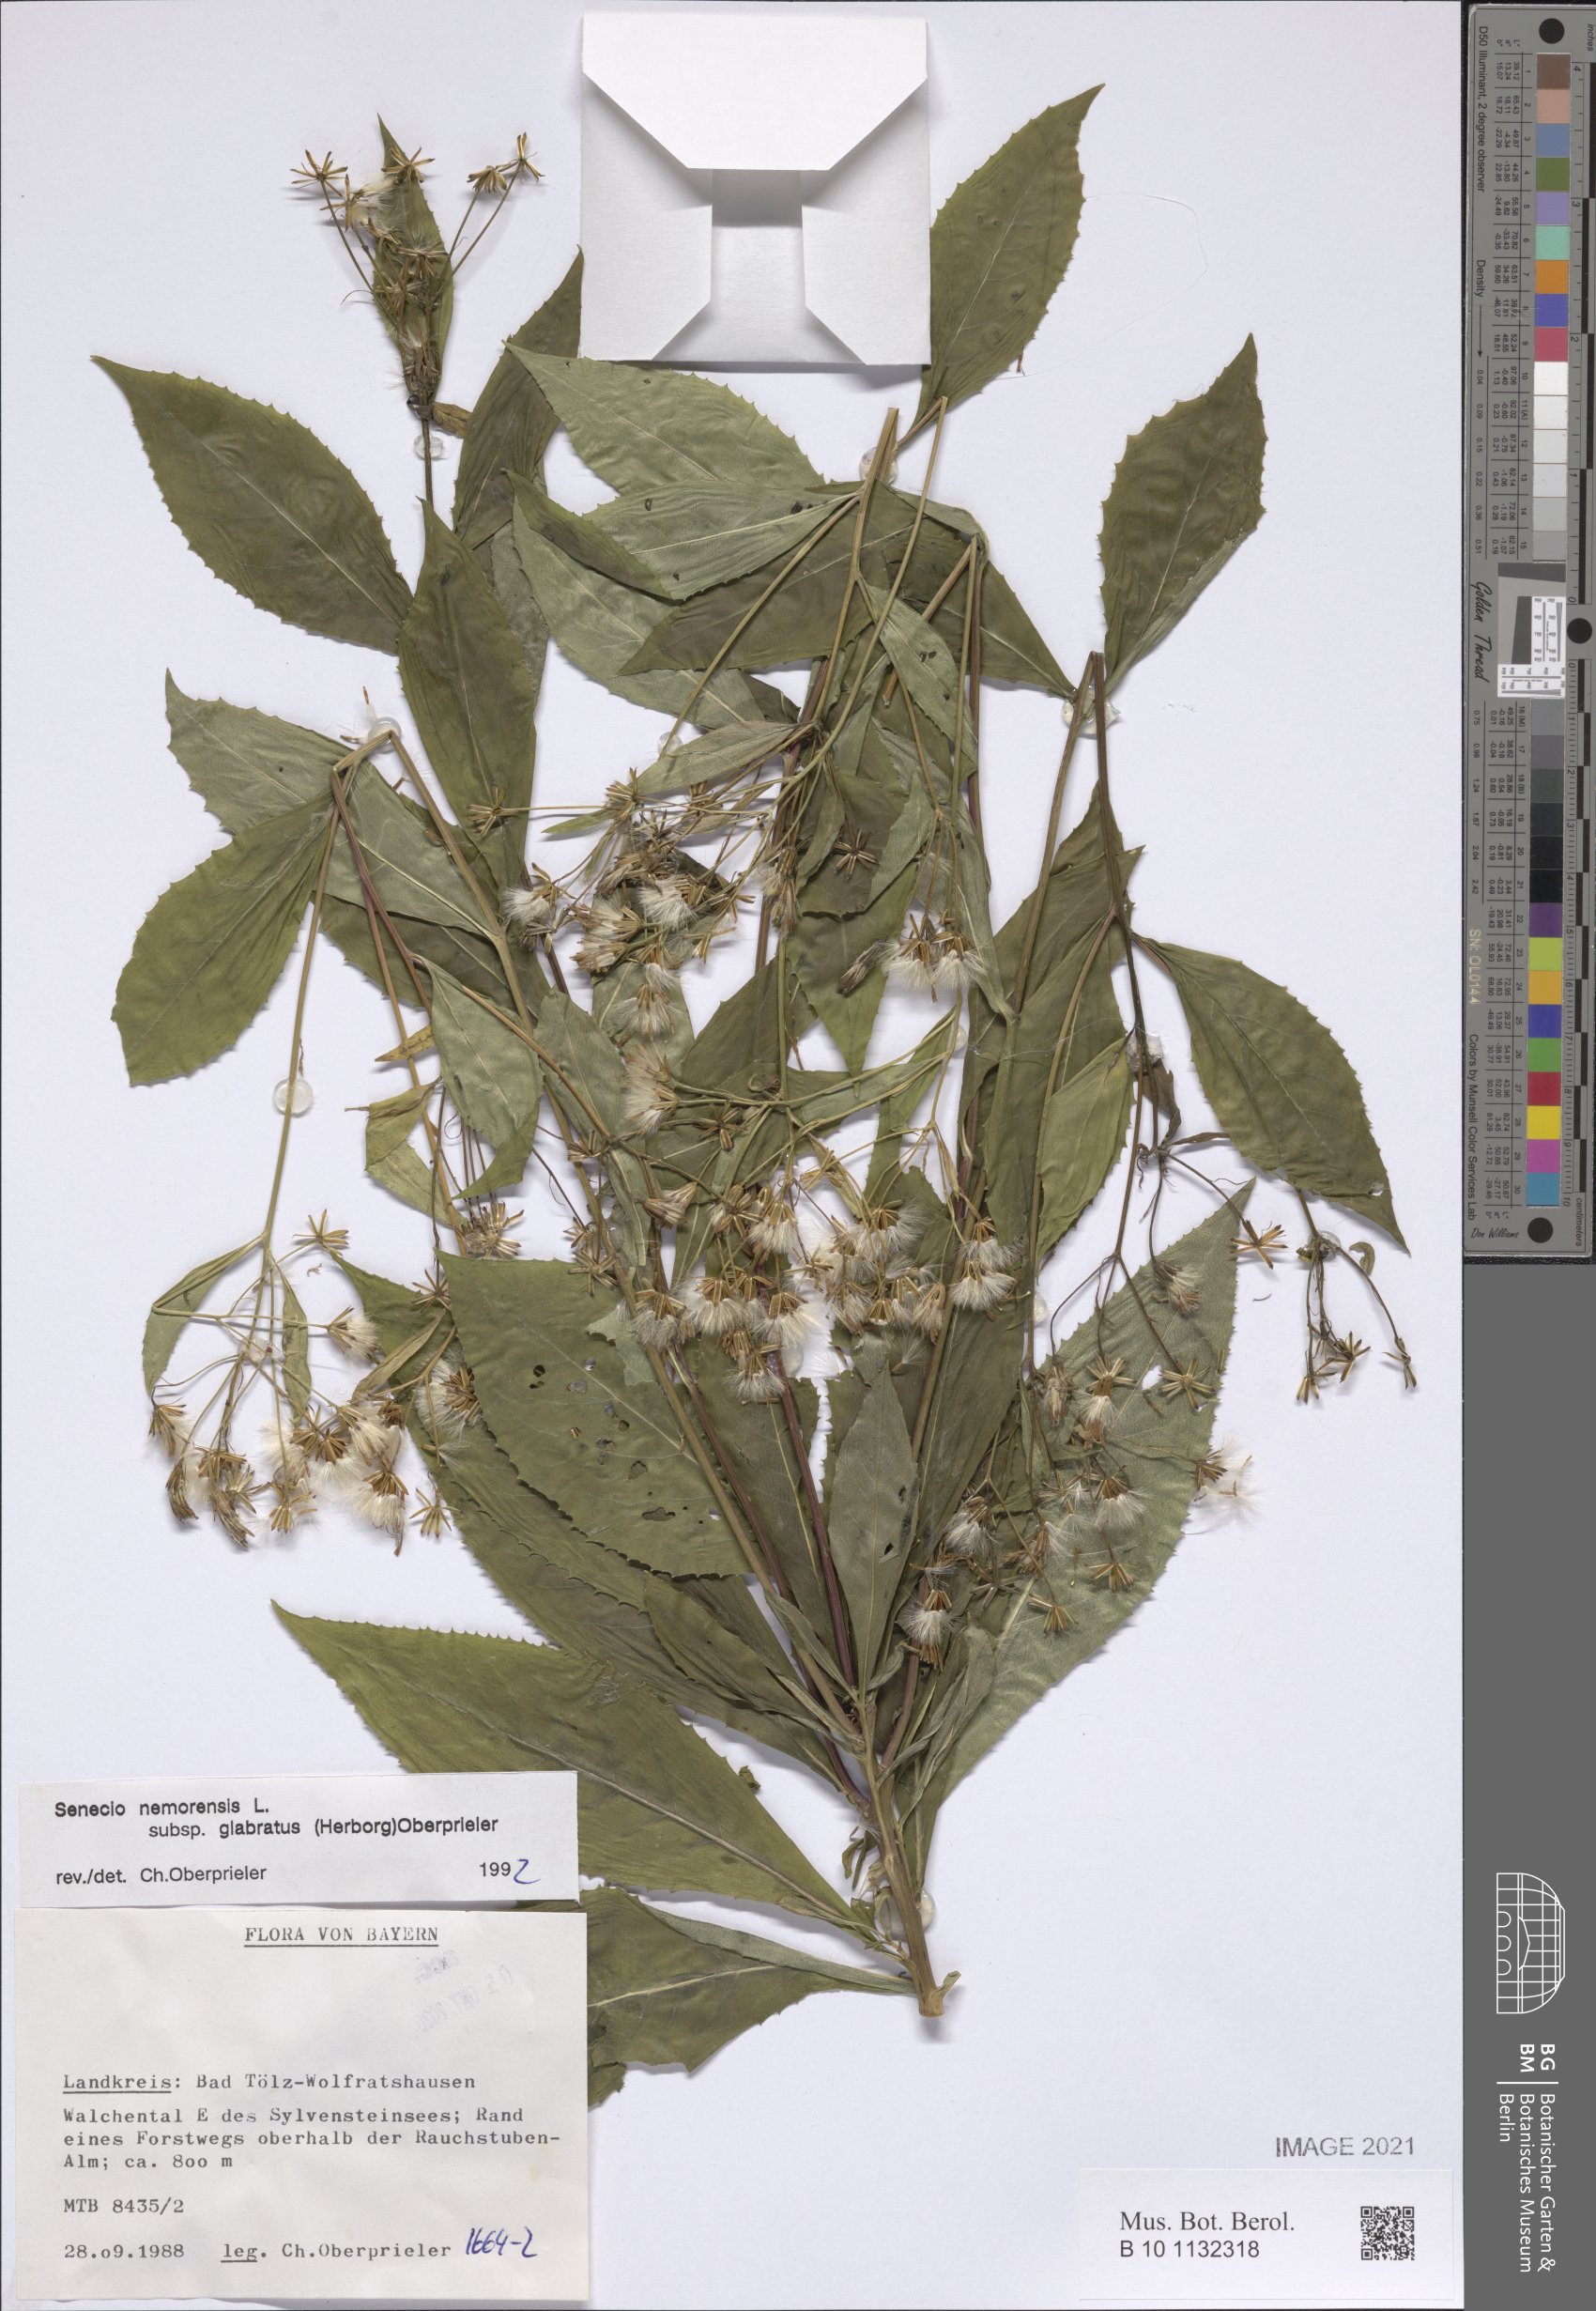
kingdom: Plantae
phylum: Tracheophyta
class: Magnoliopsida
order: Asterales
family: Asteraceae
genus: Senecio
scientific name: Senecio germanicus
